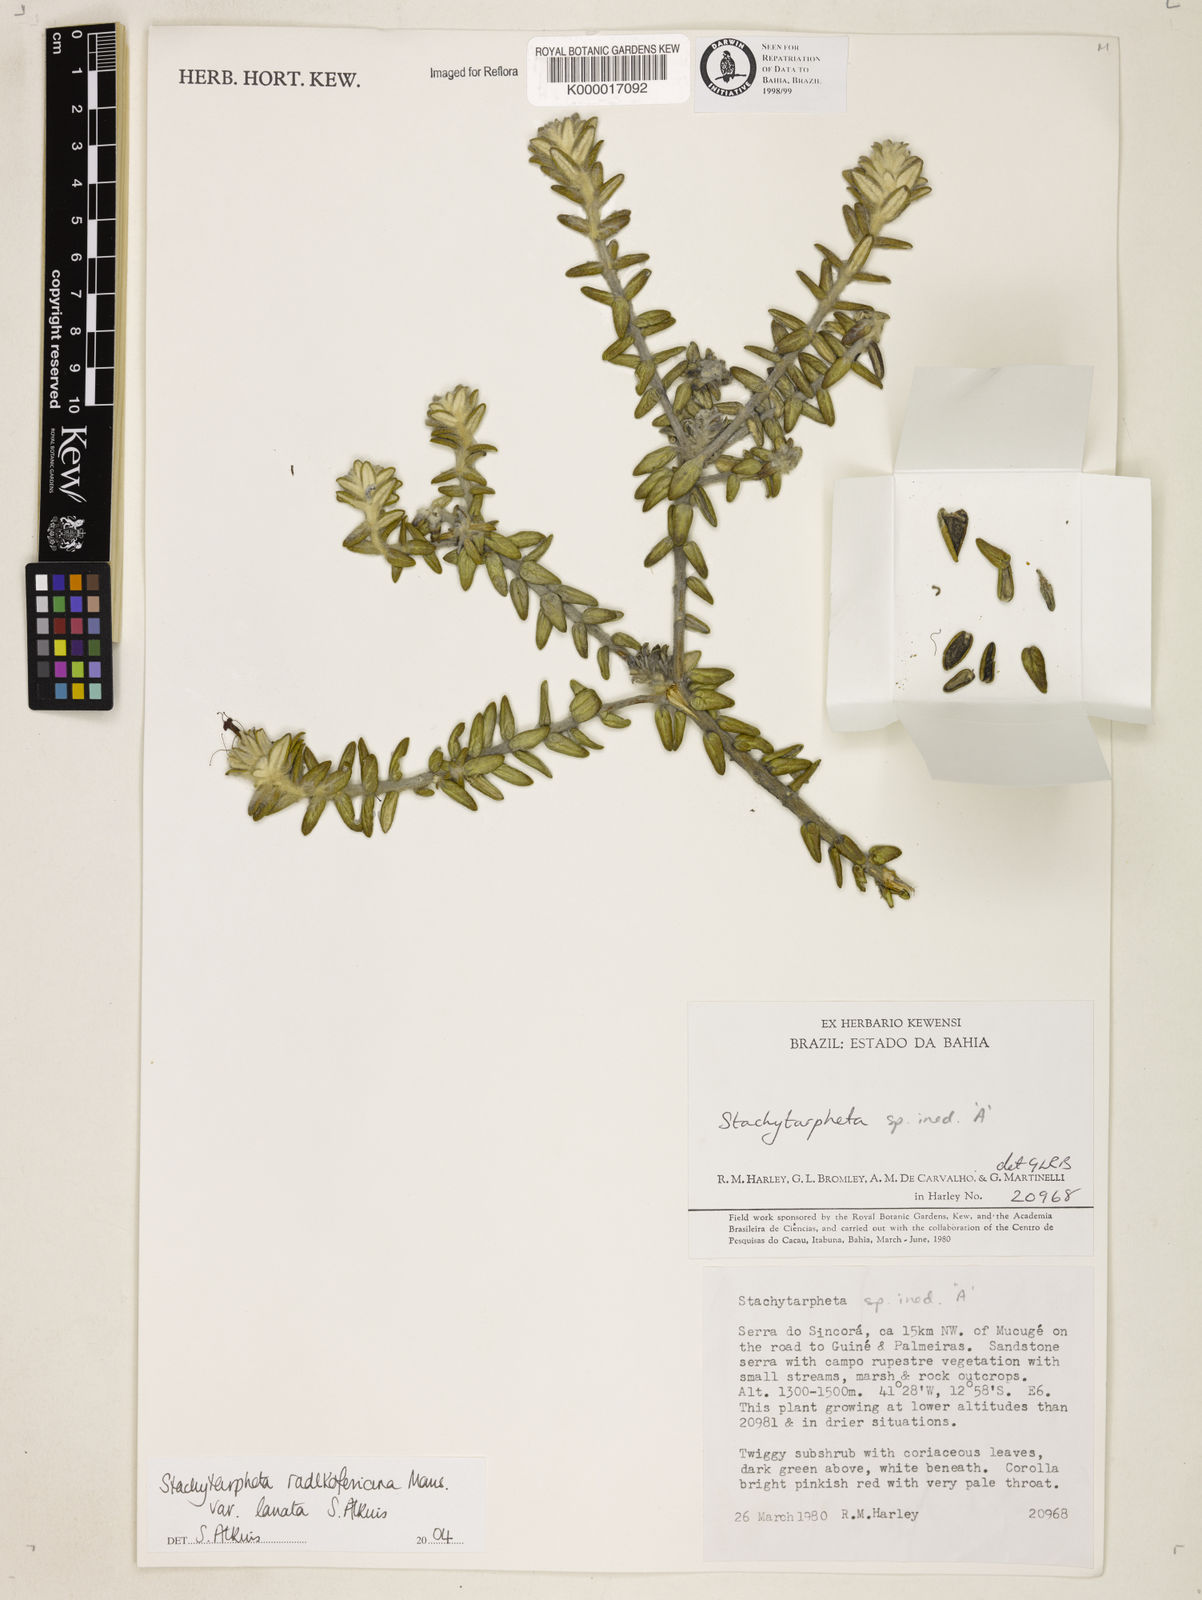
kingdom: Plantae
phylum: Tracheophyta
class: Magnoliopsida
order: Lamiales
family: Verbenaceae
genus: Stachytarpheta
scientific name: Stachytarpheta radlkoferiana
